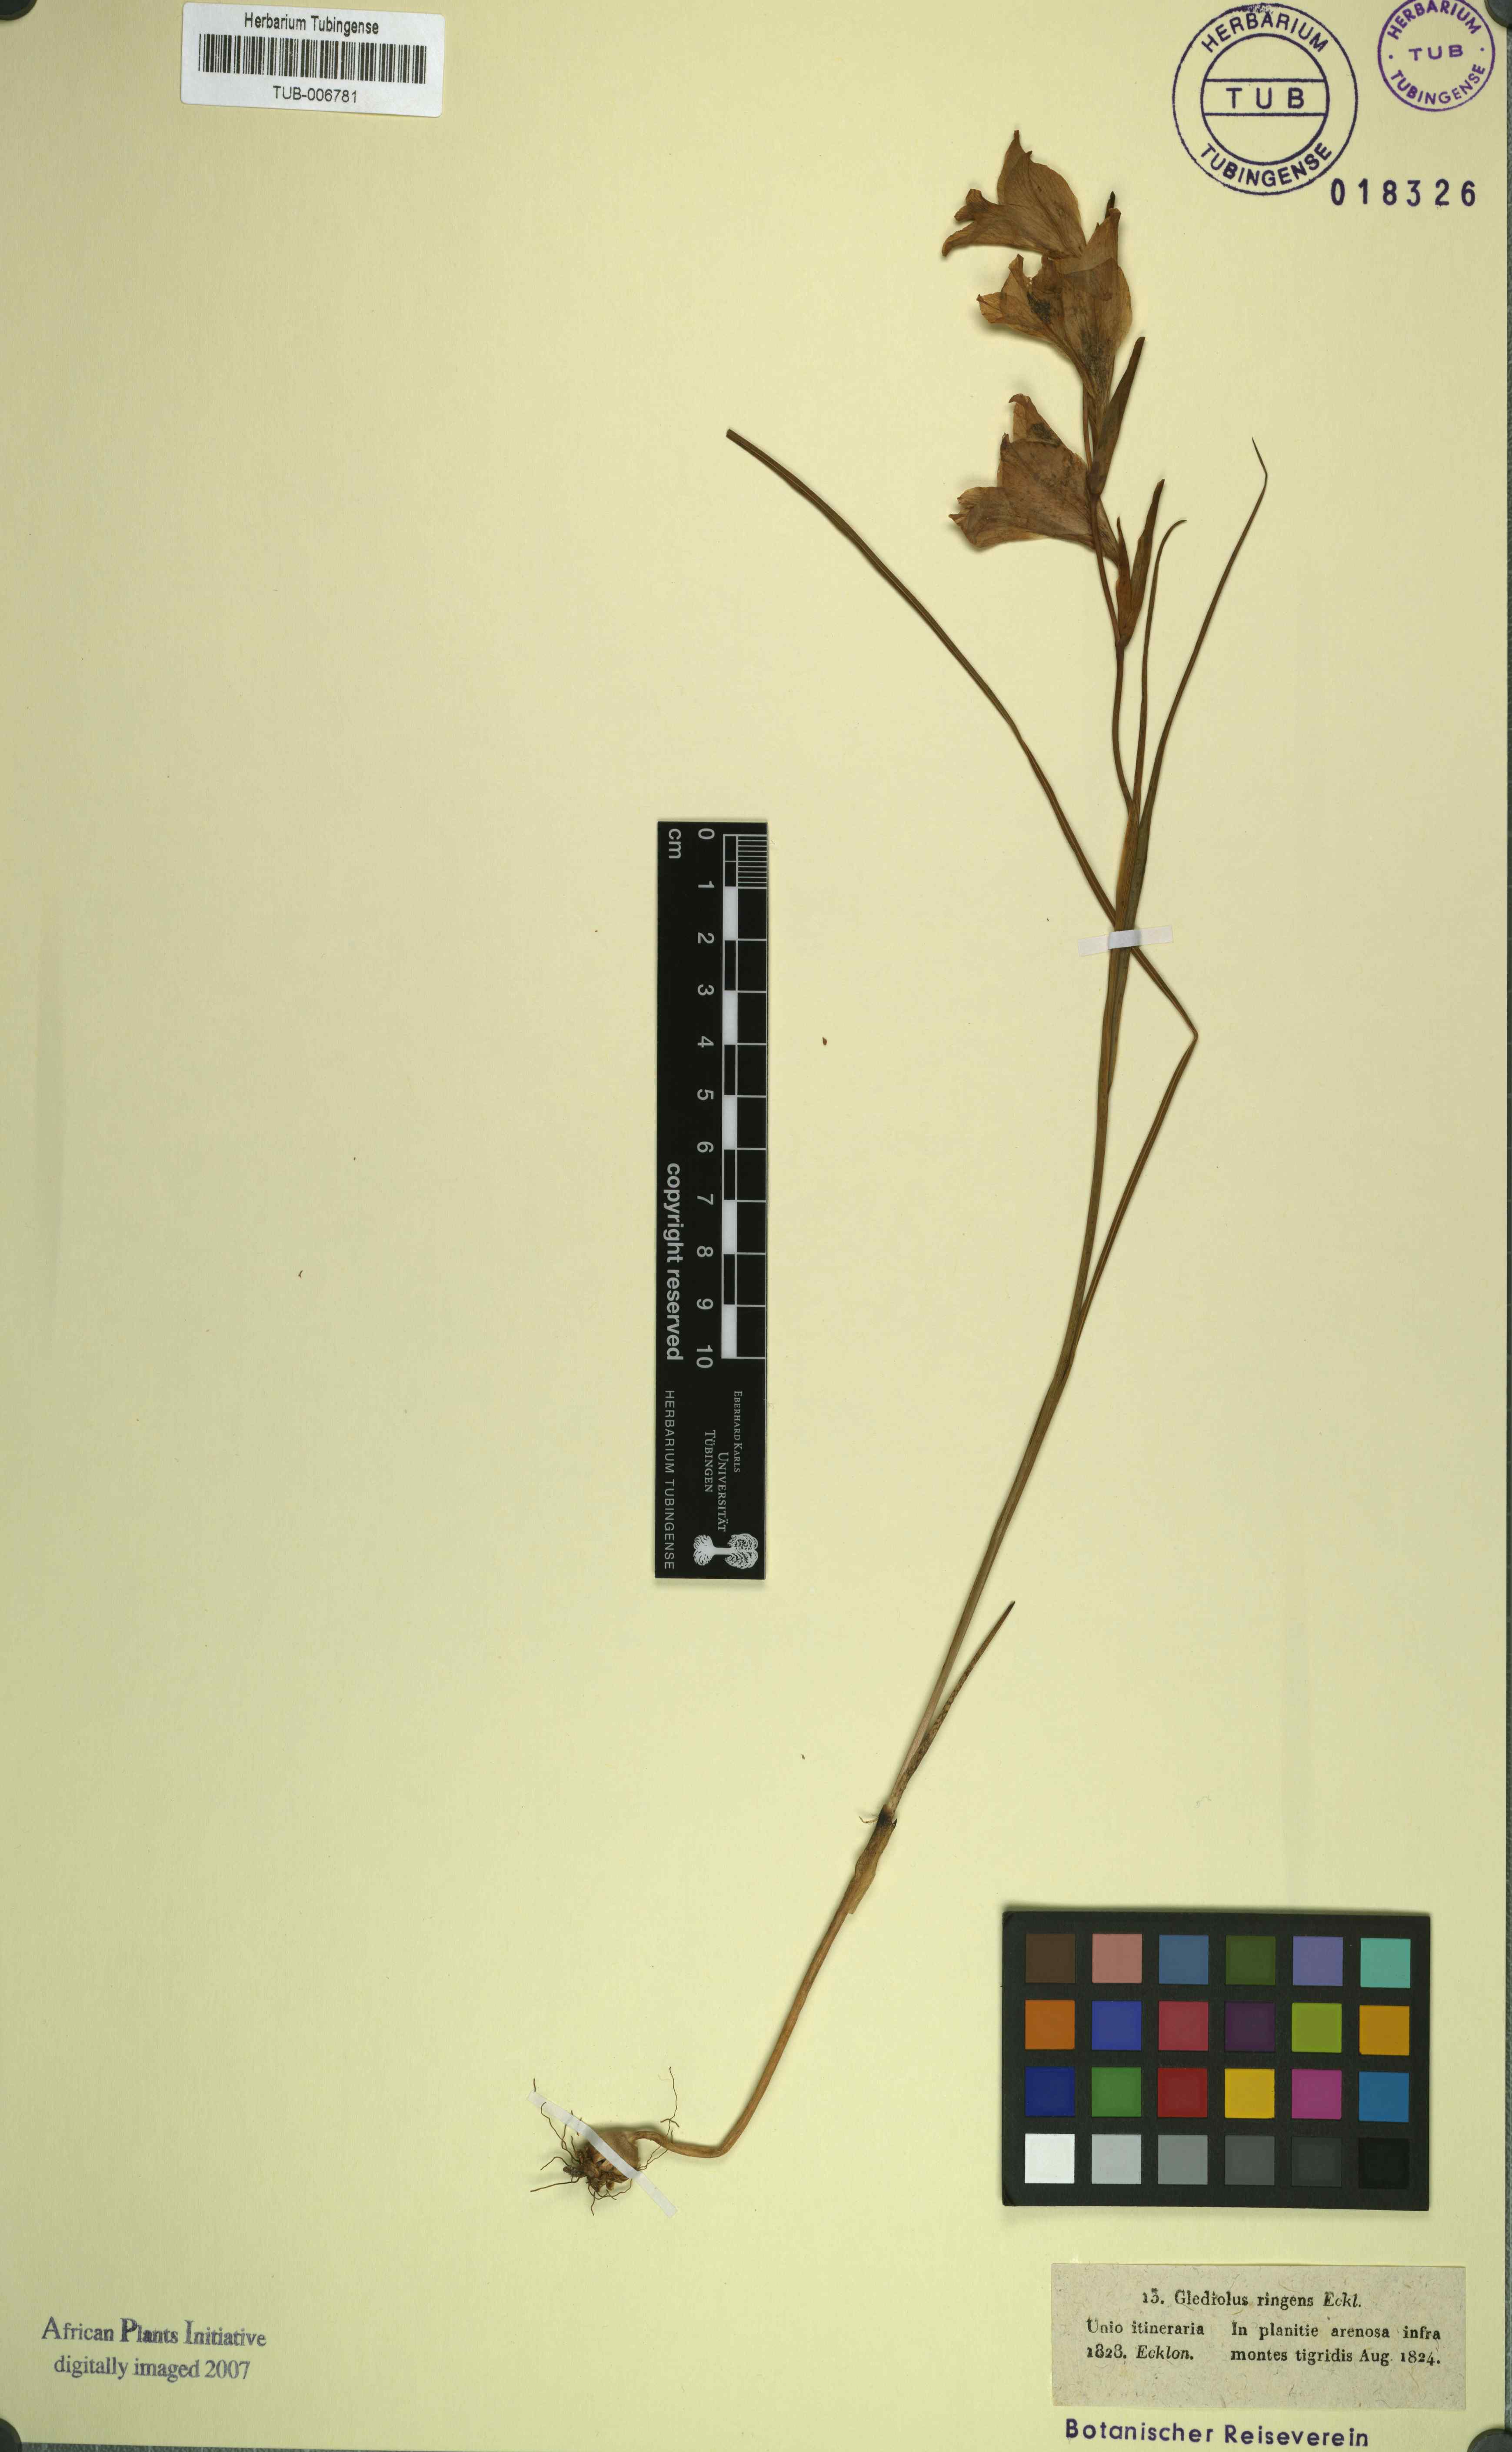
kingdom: Plantae
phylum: Tracheophyta
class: Liliopsida
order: Asparagales
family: Iridaceae
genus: Gladiolus
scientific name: Gladiolus inflatus
